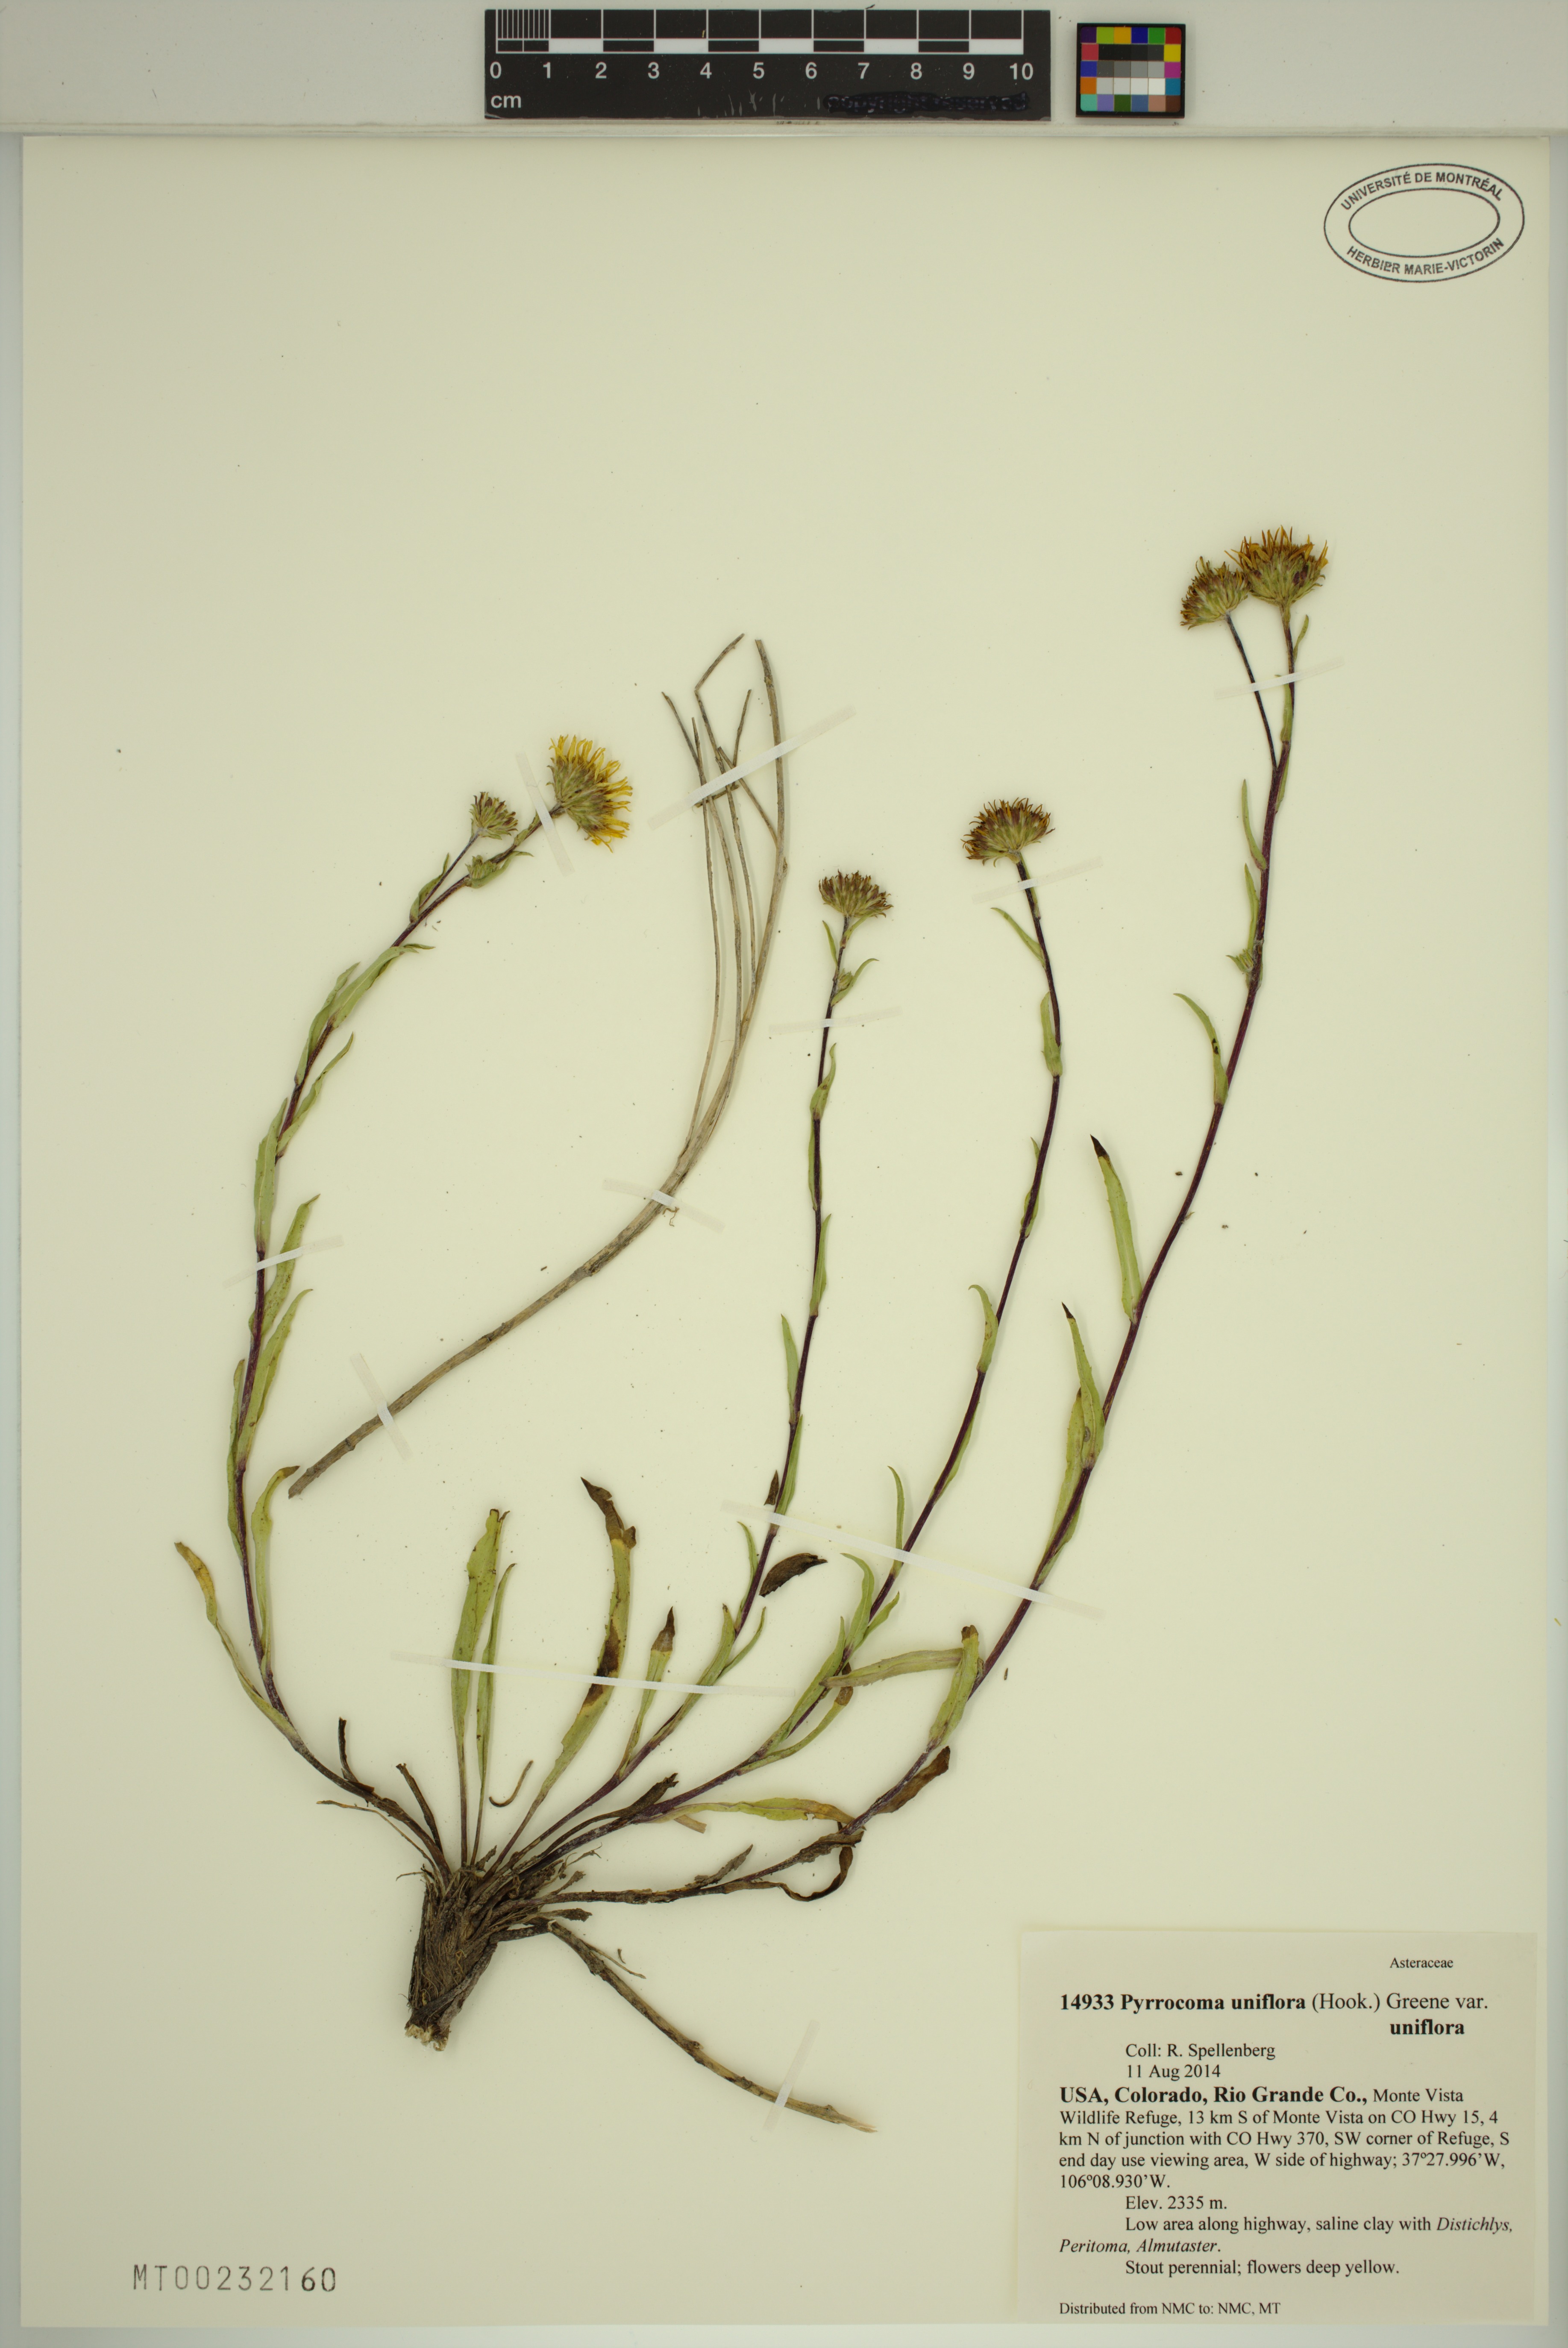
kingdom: Plantae
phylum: Tracheophyta
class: Magnoliopsida
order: Asterales
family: Asteraceae
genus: Pyrrocoma
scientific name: Pyrrocoma uniflora
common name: Plantain goldenweed
